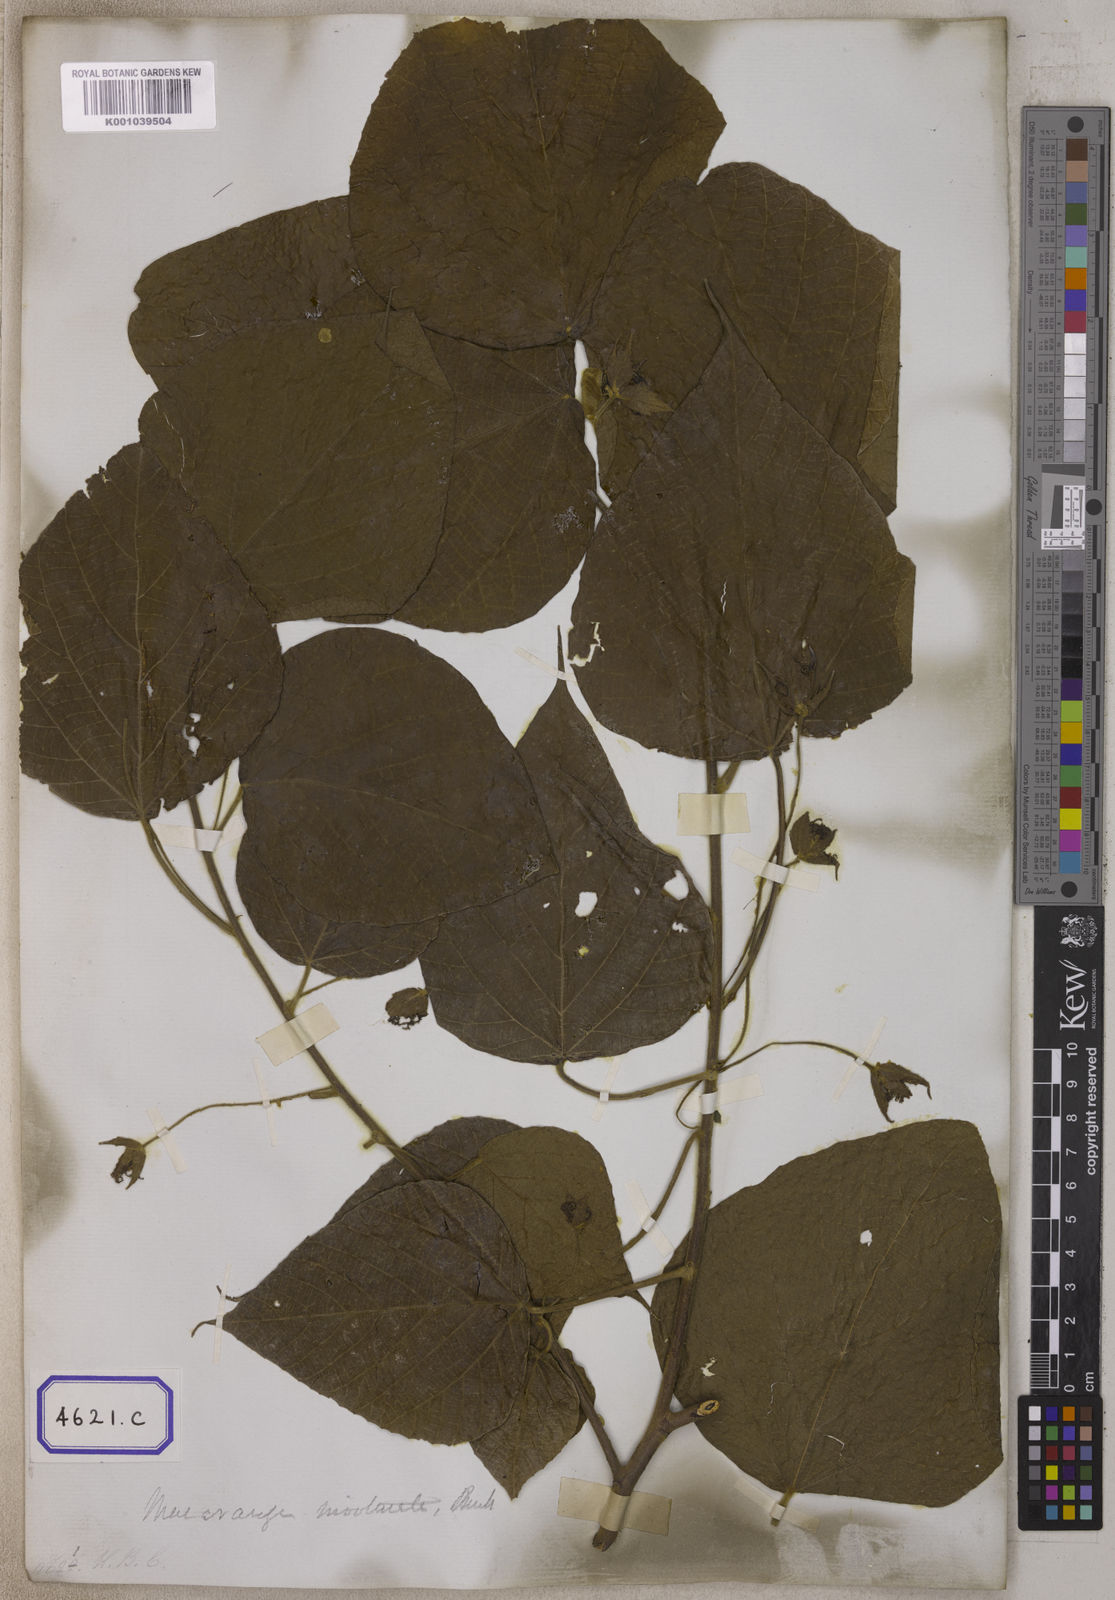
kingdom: Plantae
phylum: Tracheophyta
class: Magnoliopsida
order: Malpighiales
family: Euphorbiaceae
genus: Macaranga
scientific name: Macaranga involucrata
